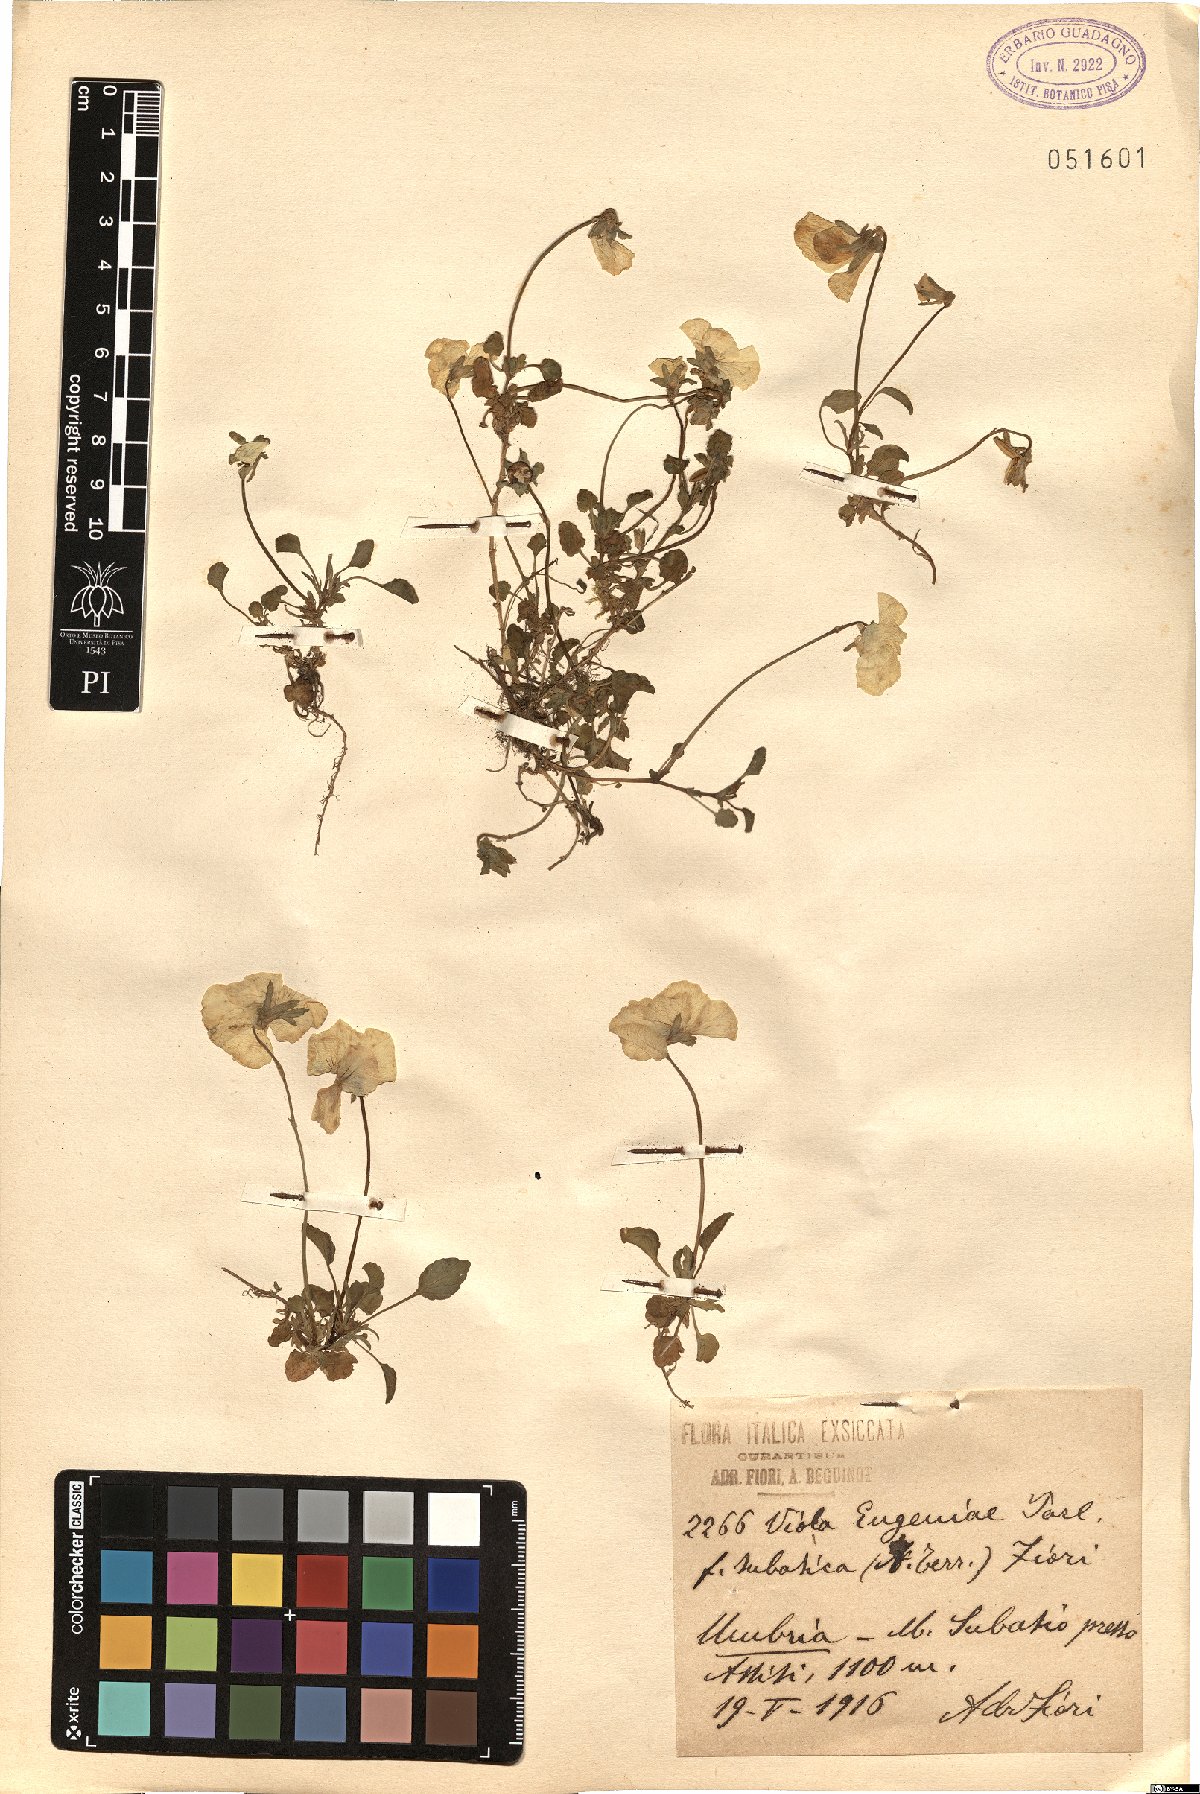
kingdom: Plantae
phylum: Tracheophyta
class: Magnoliopsida
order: Malpighiales
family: Violaceae
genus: Viola
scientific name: Viola eugeniae
